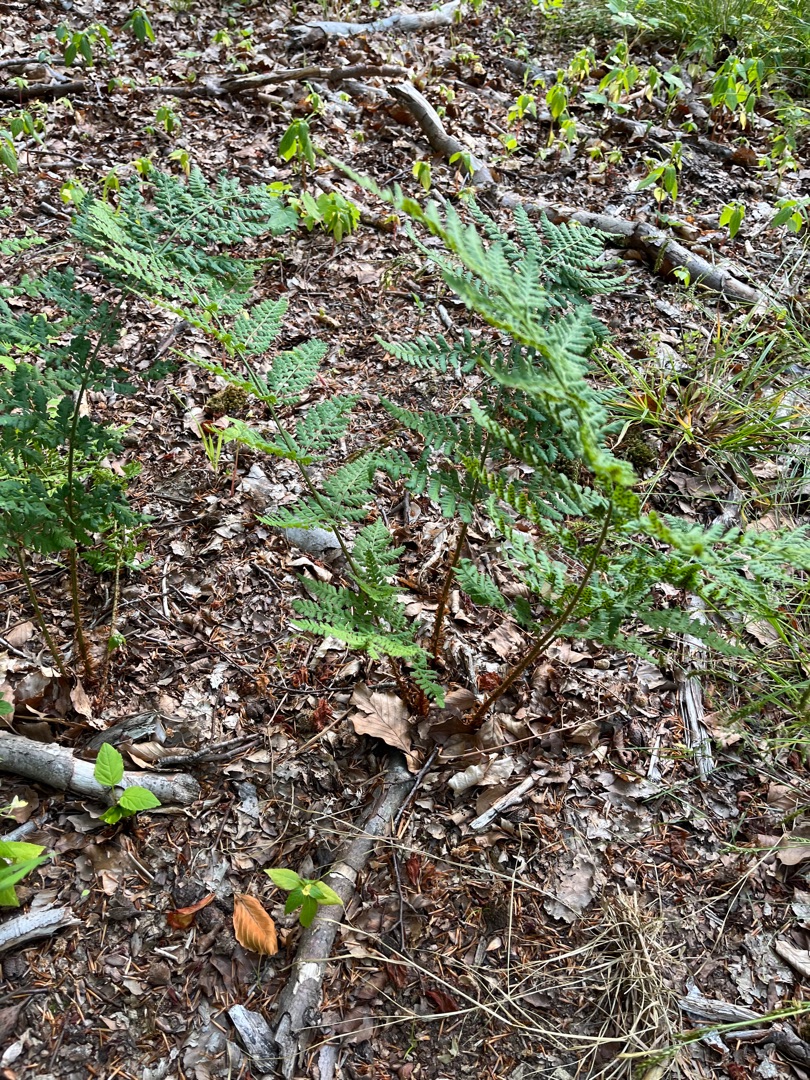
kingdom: Plantae
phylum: Tracheophyta
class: Polypodiopsida
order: Polypodiales
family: Dryopteridaceae
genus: Dryopteris
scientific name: Dryopteris dilatata
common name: Bredbladet mangeløv
